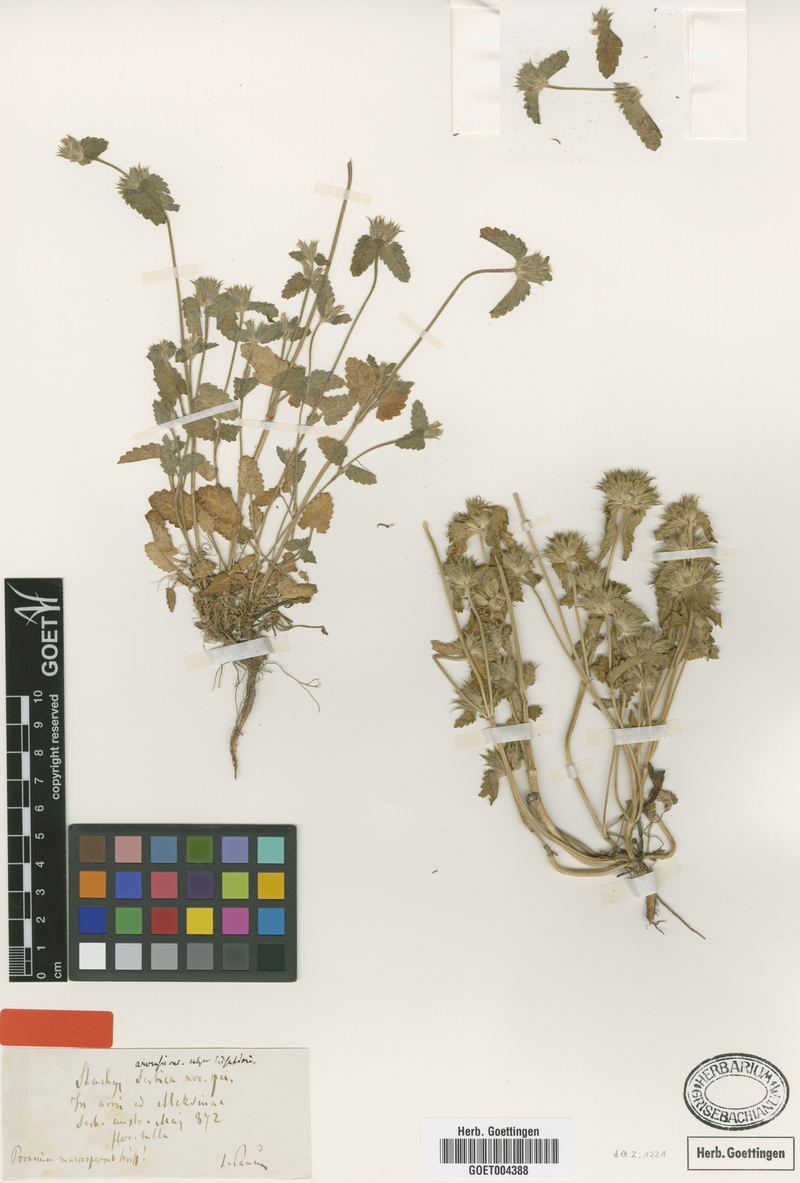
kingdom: Plantae
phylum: Tracheophyta
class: Magnoliopsida
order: Lamiales
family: Lamiaceae
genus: Stachys
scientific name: Stachys serbica
